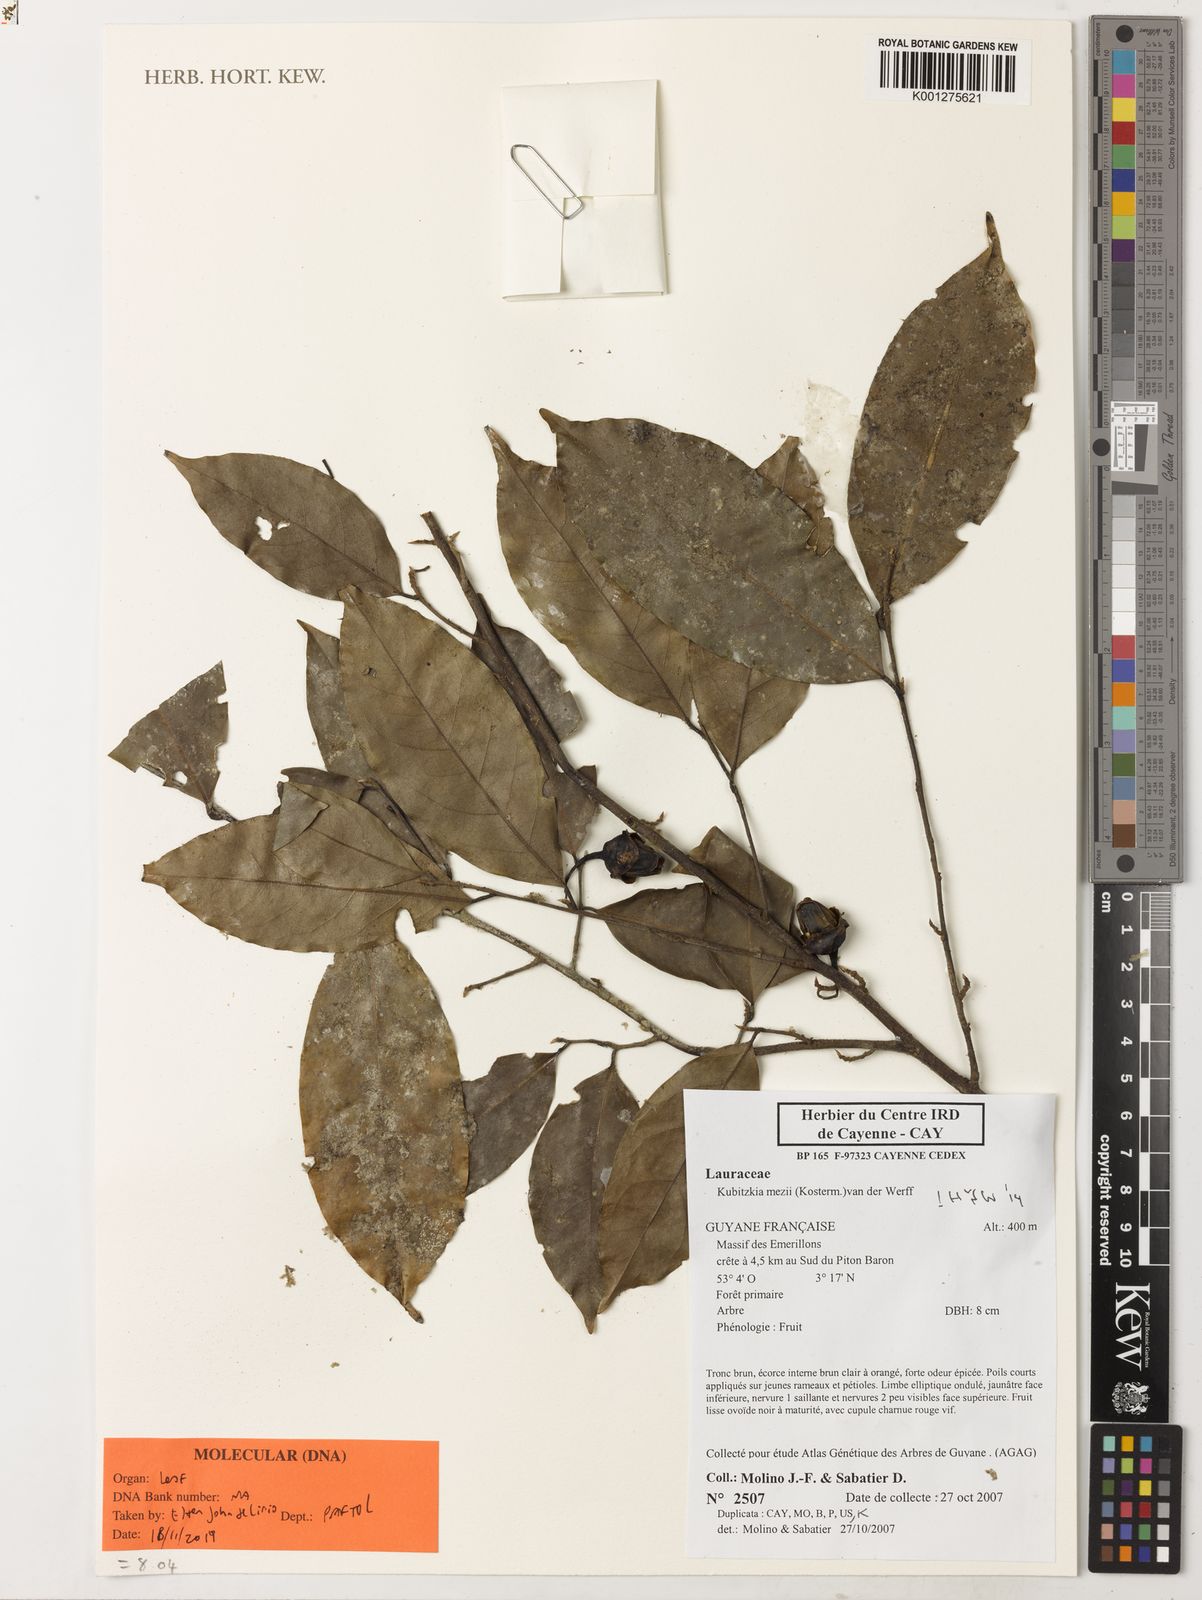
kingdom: Plantae
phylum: Tracheophyta
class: Magnoliopsida
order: Laurales
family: Lauraceae
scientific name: Lauraceae
